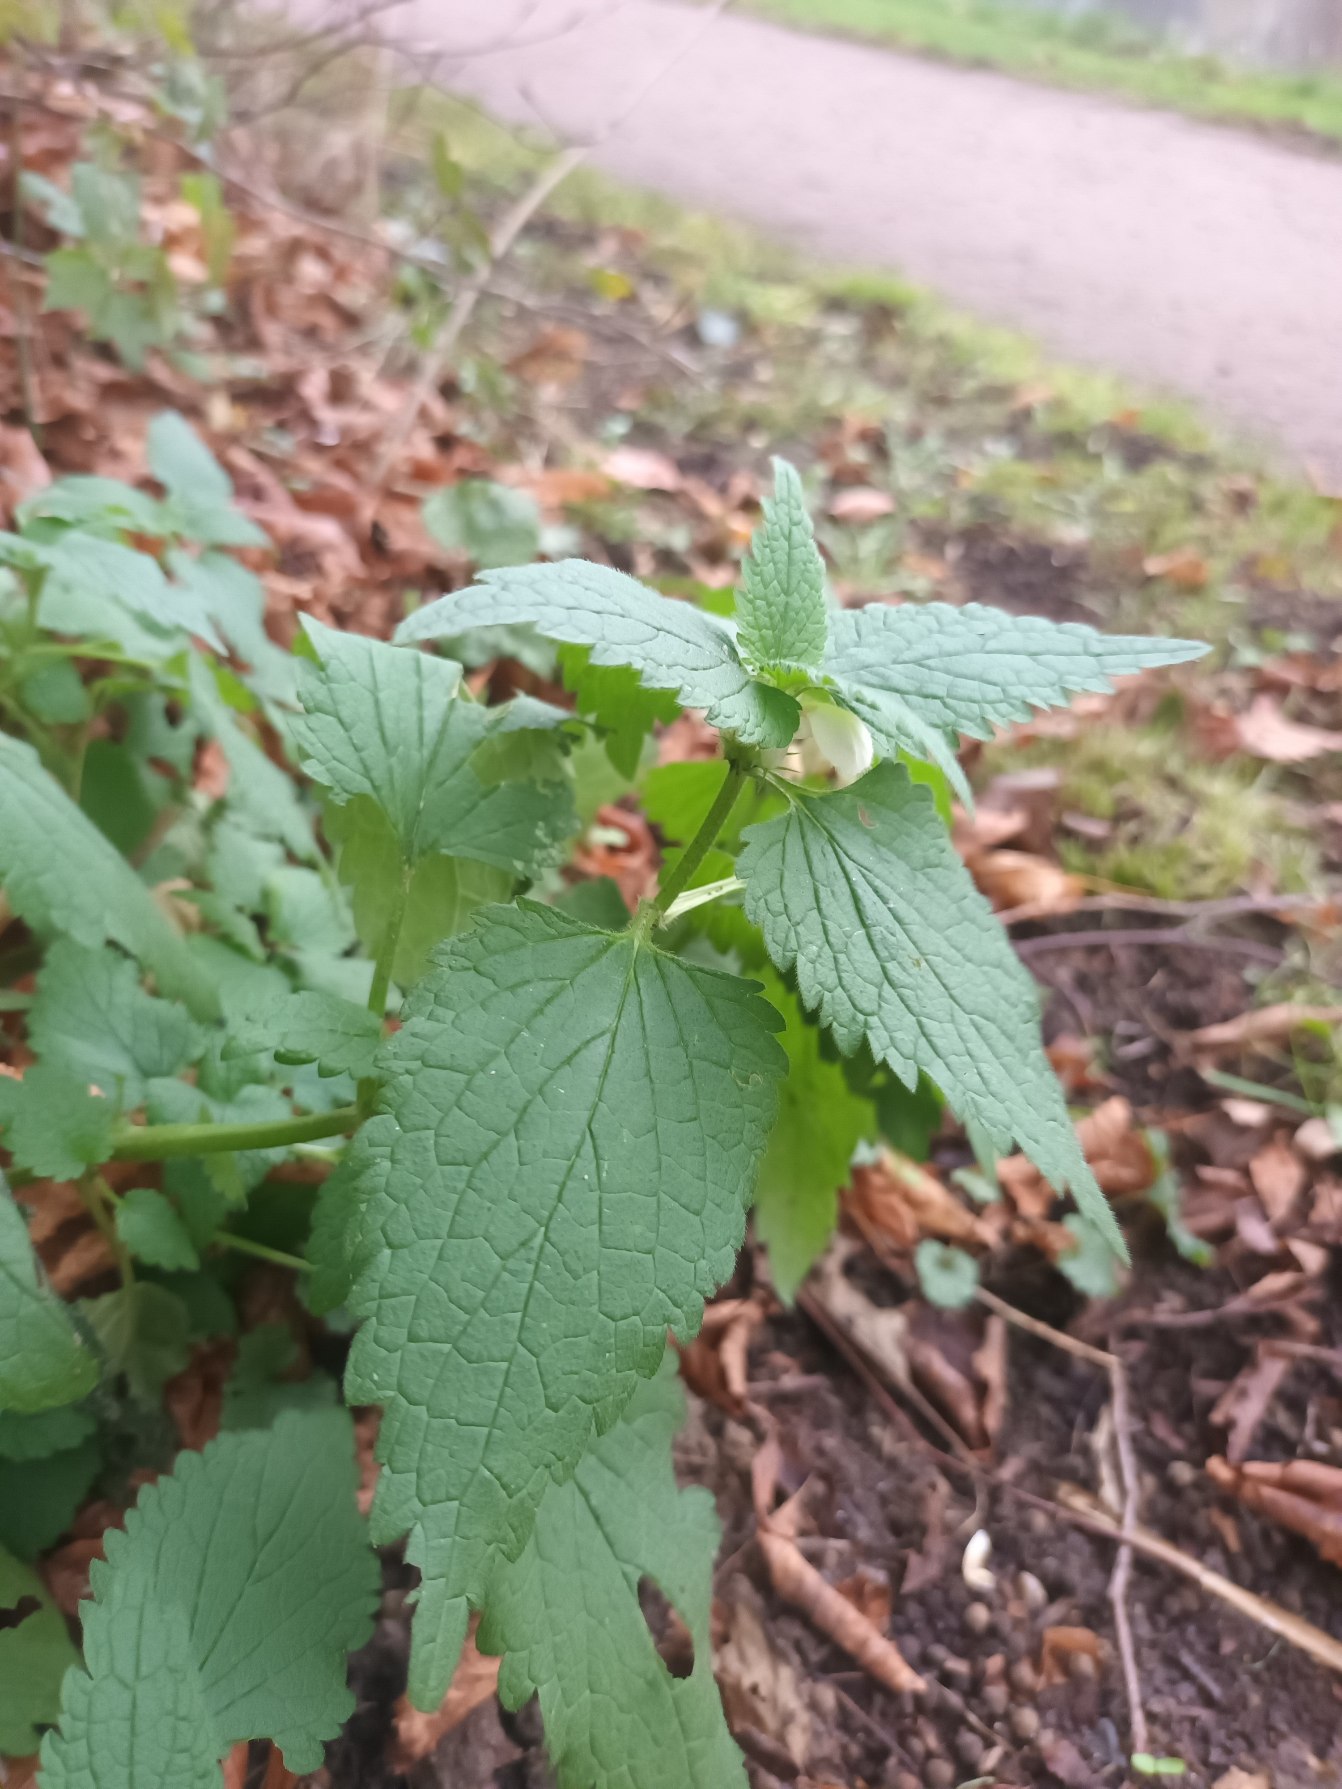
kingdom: Plantae
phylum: Tracheophyta
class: Magnoliopsida
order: Lamiales
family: Lamiaceae
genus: Lamium
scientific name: Lamium album
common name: Døvnælde
